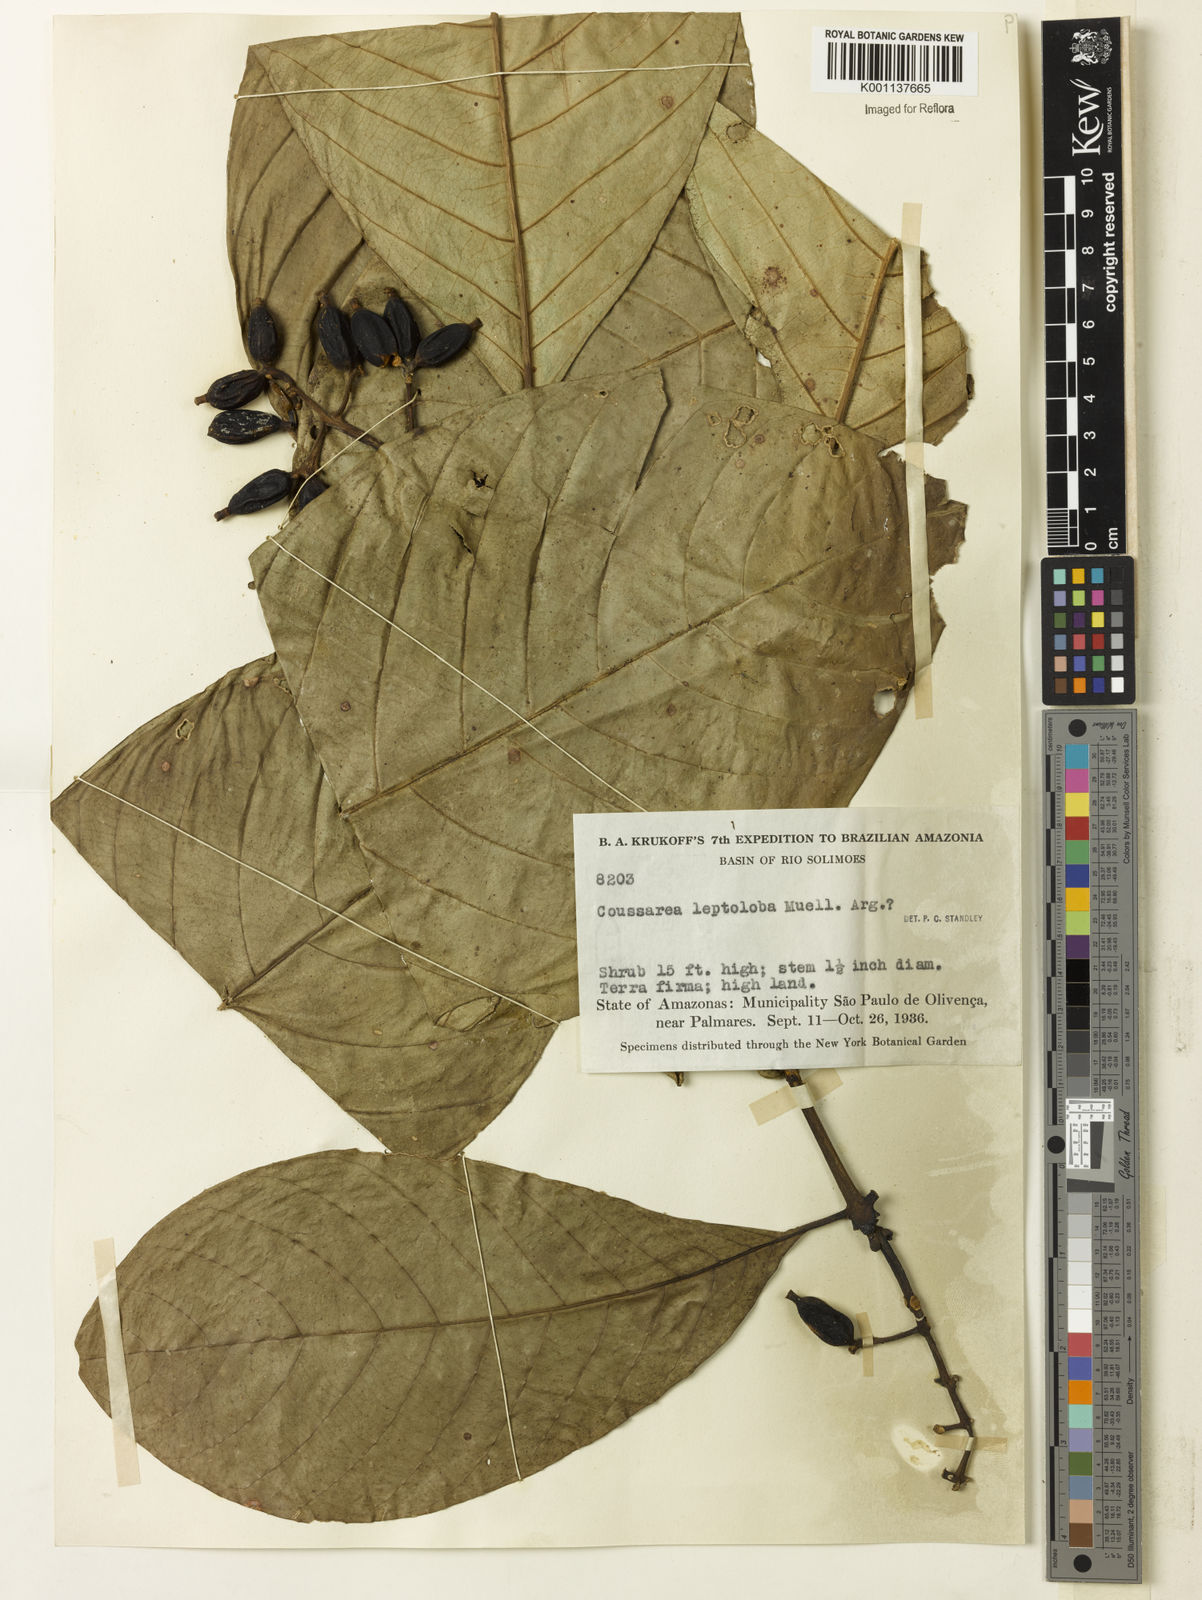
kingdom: Plantae
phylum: Tracheophyta
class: Magnoliopsida
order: Gentianales
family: Rubiaceae
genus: Coussarea
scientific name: Coussarea
